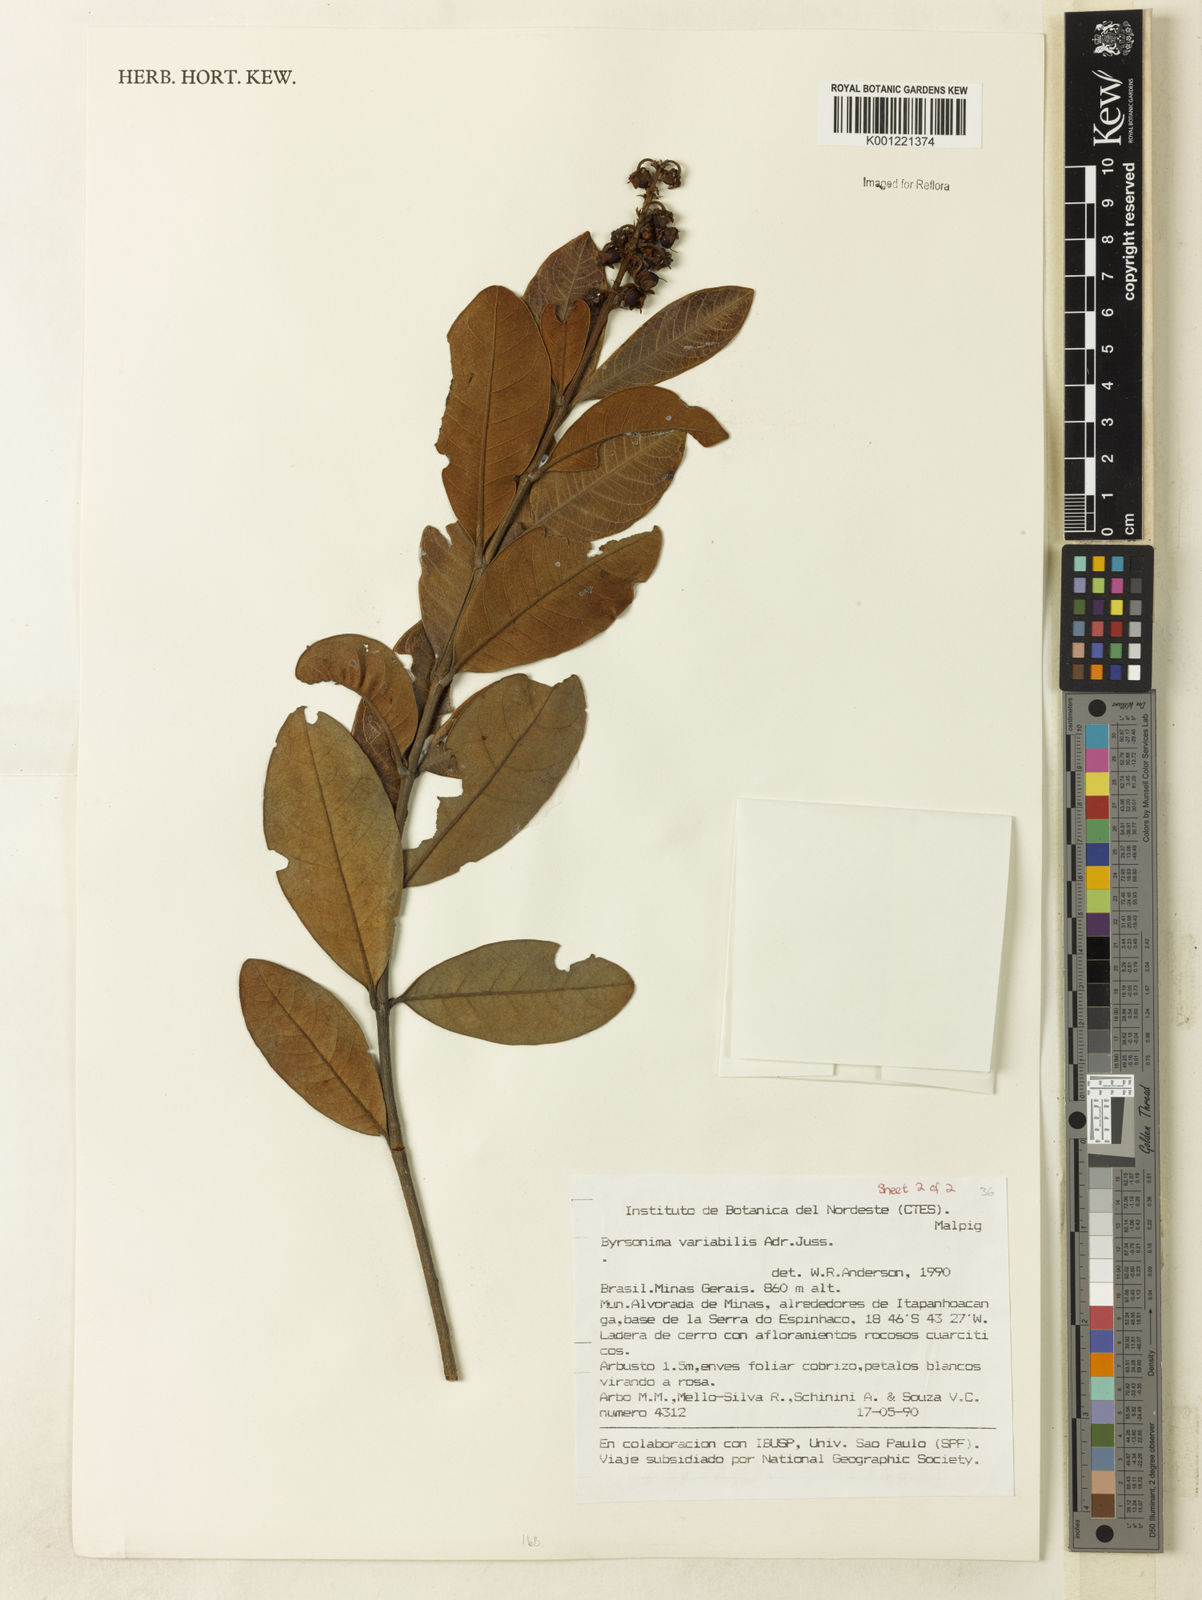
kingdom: Plantae
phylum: Tracheophyta
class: Magnoliopsida
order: Malpighiales
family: Malpighiaceae
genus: Byrsonima
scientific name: Byrsonima variabilis
